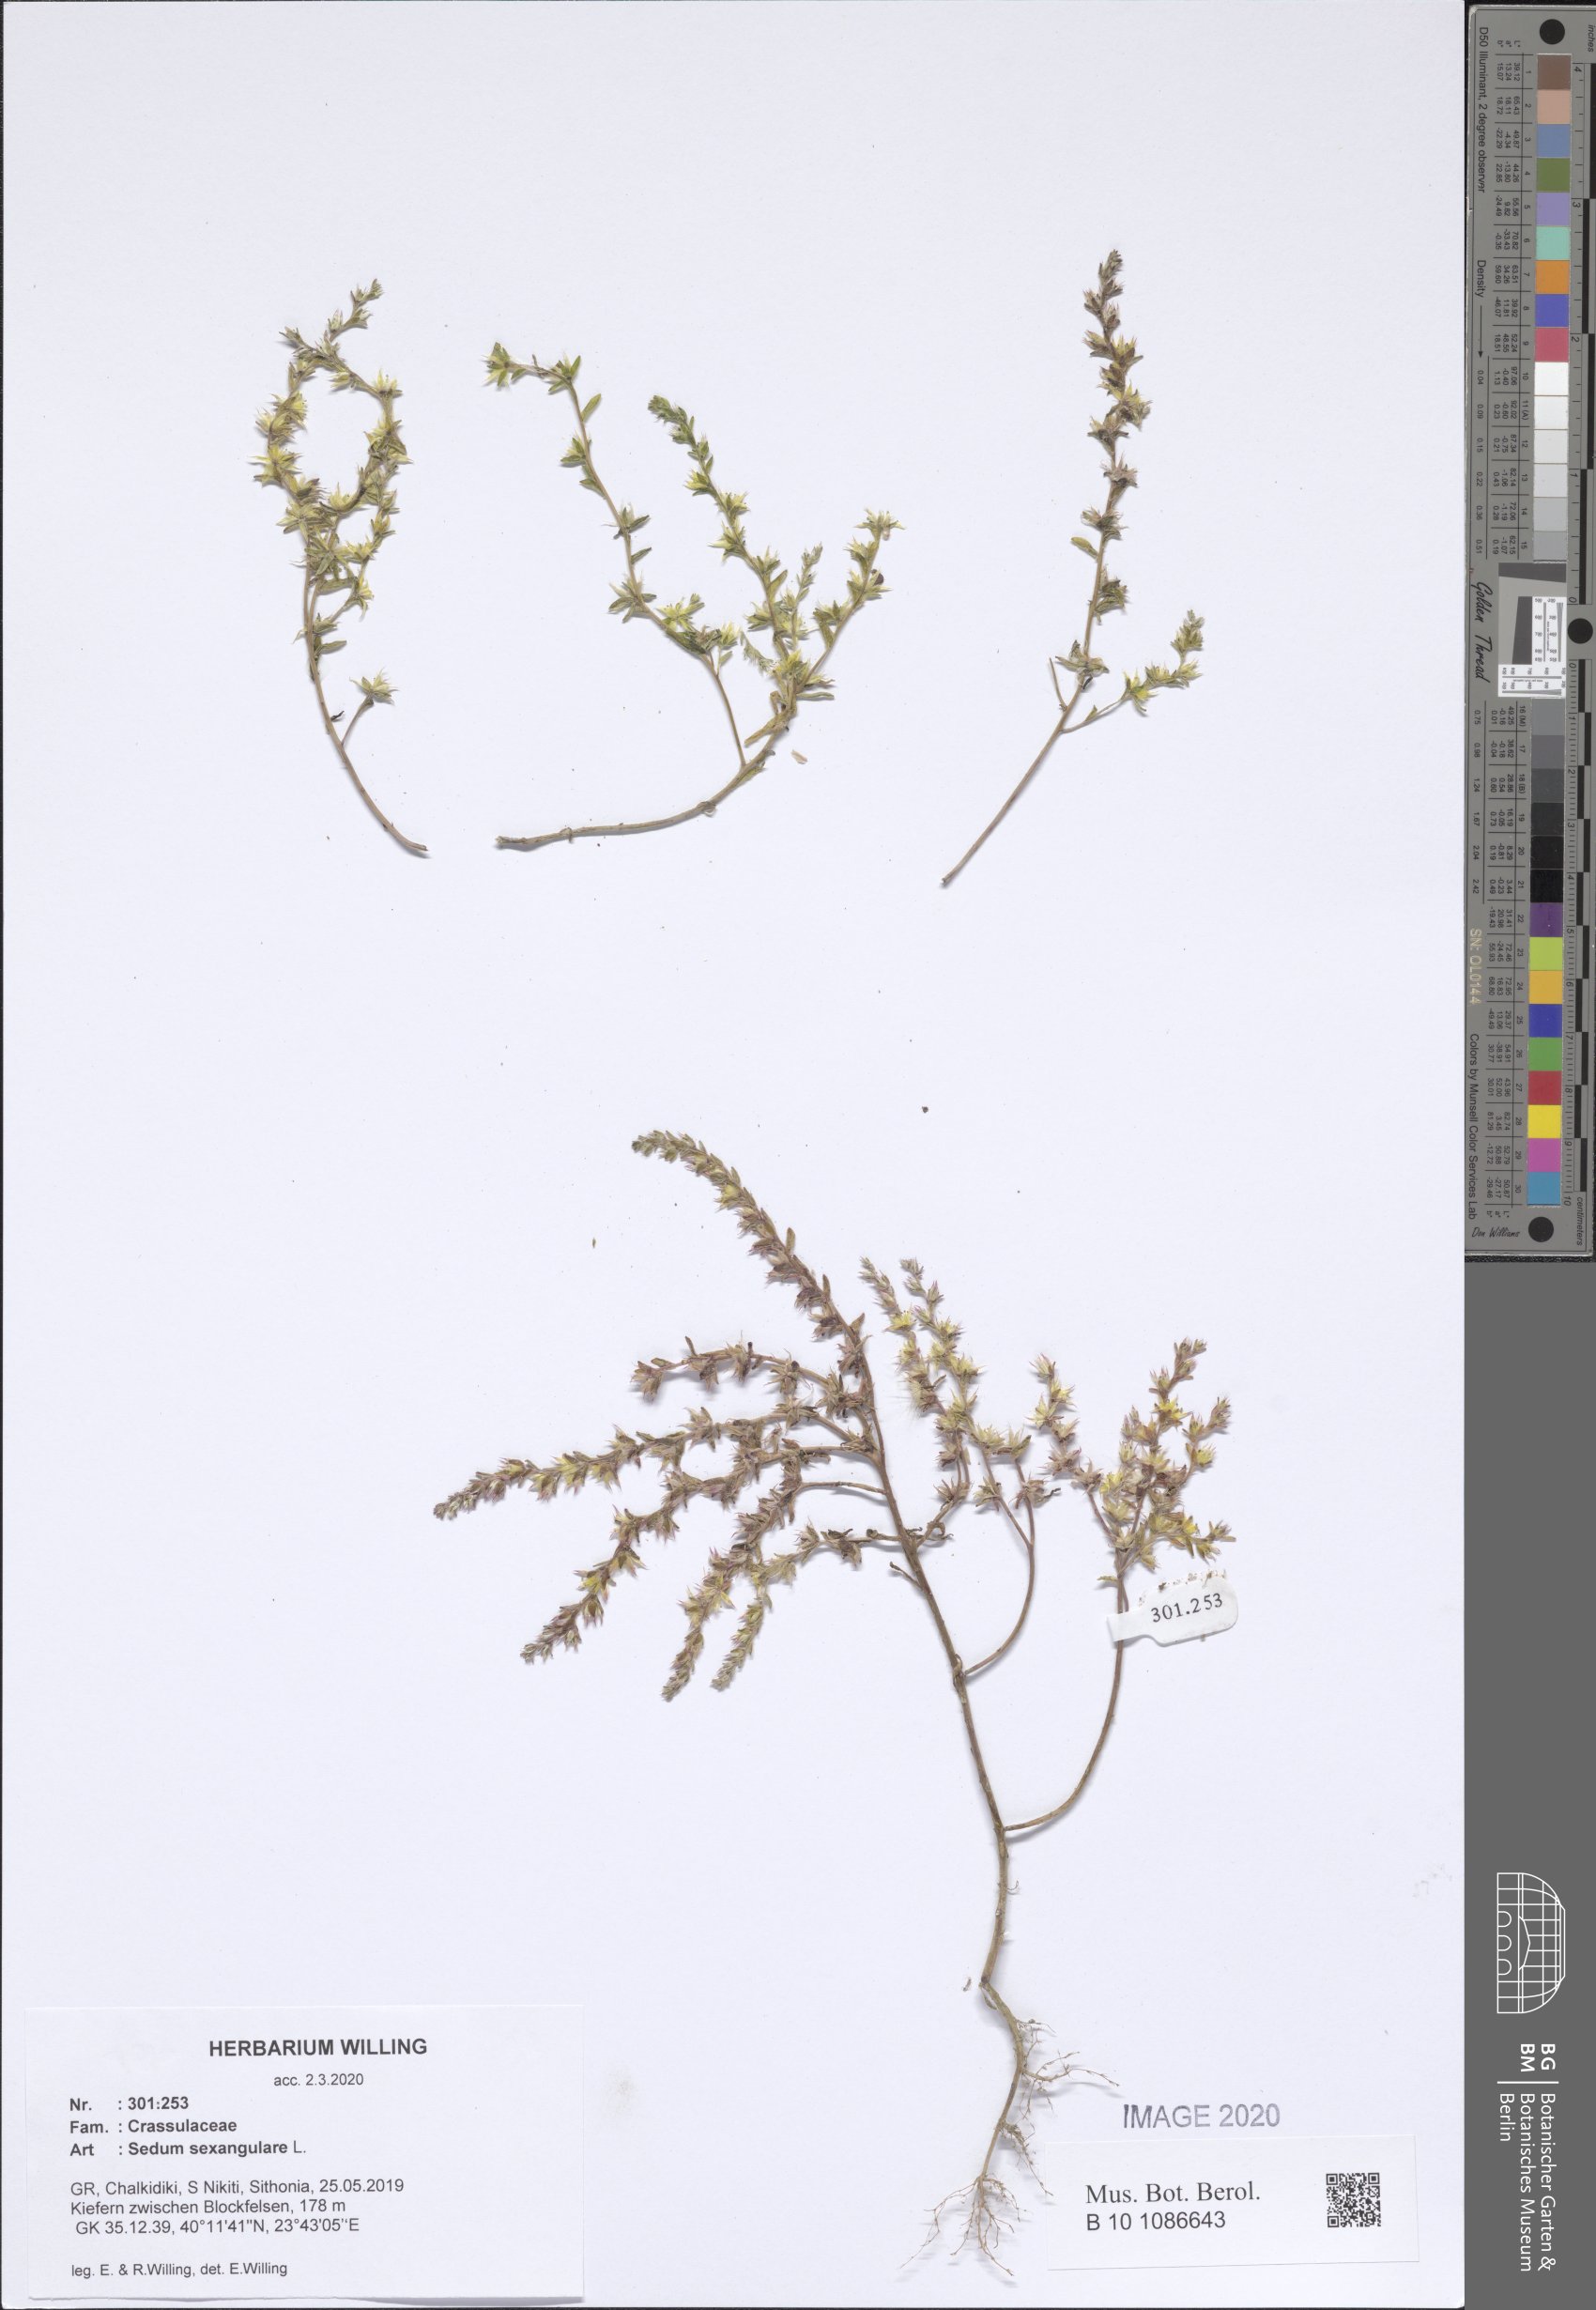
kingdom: Plantae
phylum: Tracheophyta
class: Magnoliopsida
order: Saxifragales
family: Crassulaceae
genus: Sedum
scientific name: Sedum sexangulare
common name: Tasteless stonecrop
